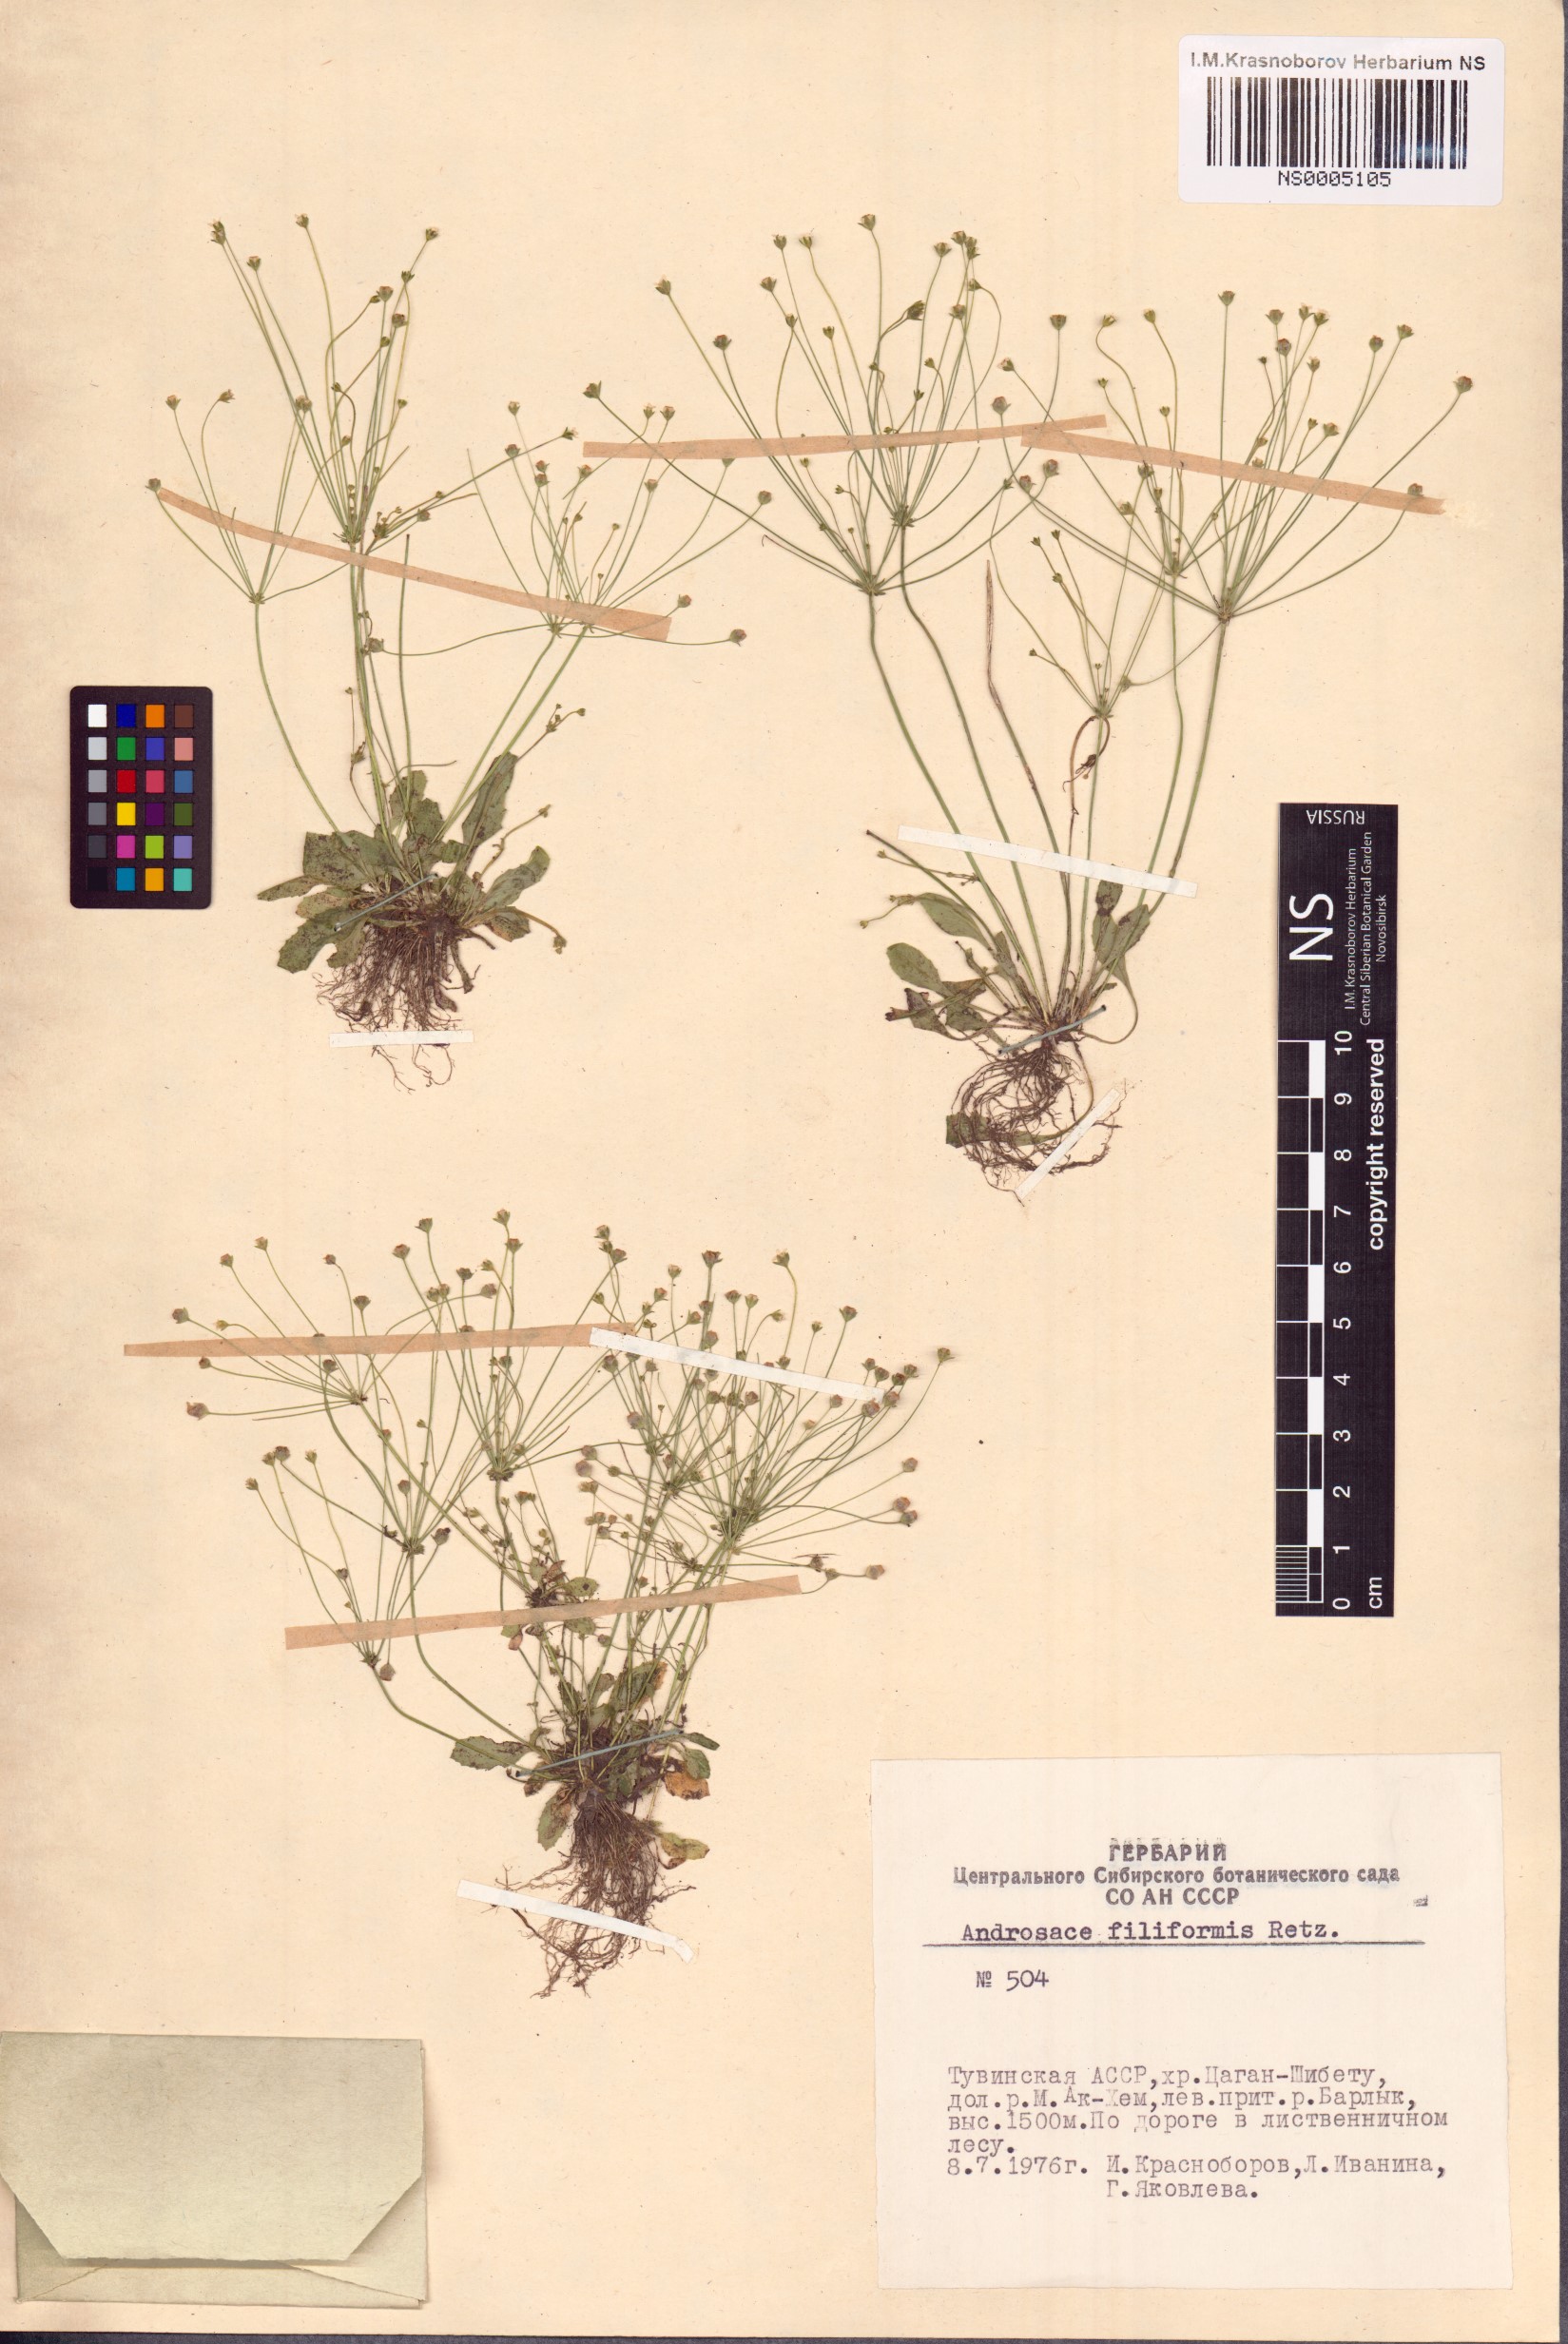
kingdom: Plantae
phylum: Tracheophyta
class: Magnoliopsida
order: Ericales
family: Primulaceae
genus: Androsace
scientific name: Androsace filiformis
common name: Filiform rock jasmine
